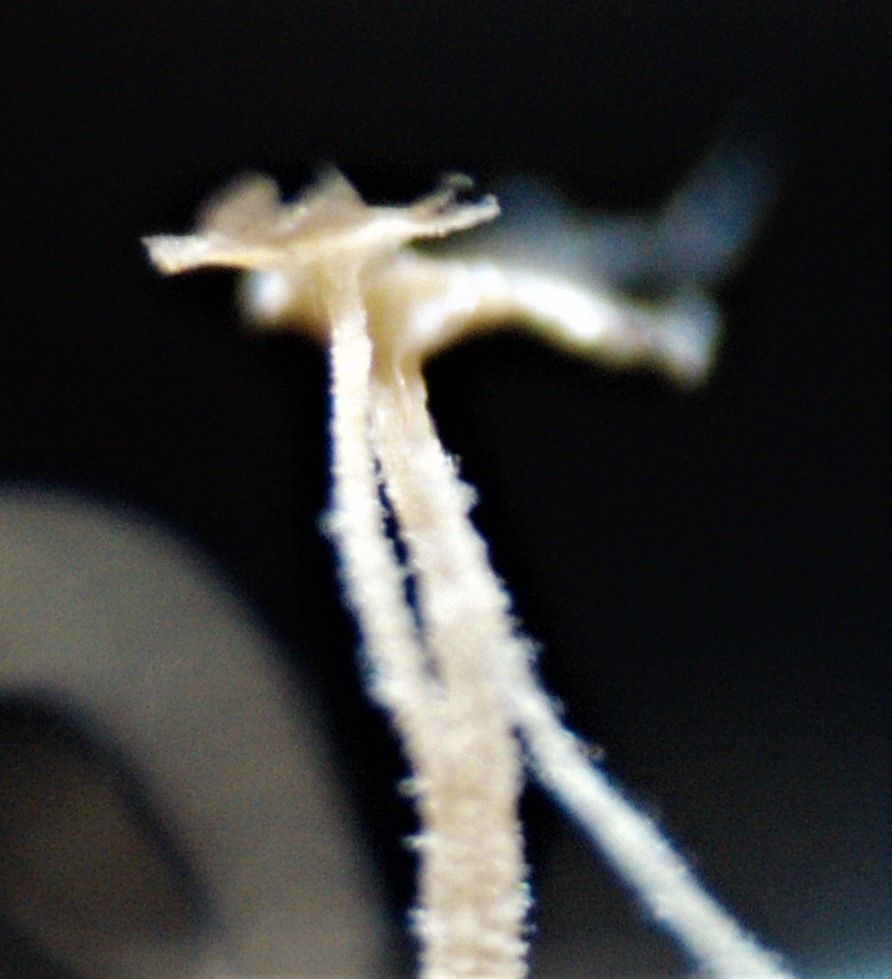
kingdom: Fungi
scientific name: Fungi
